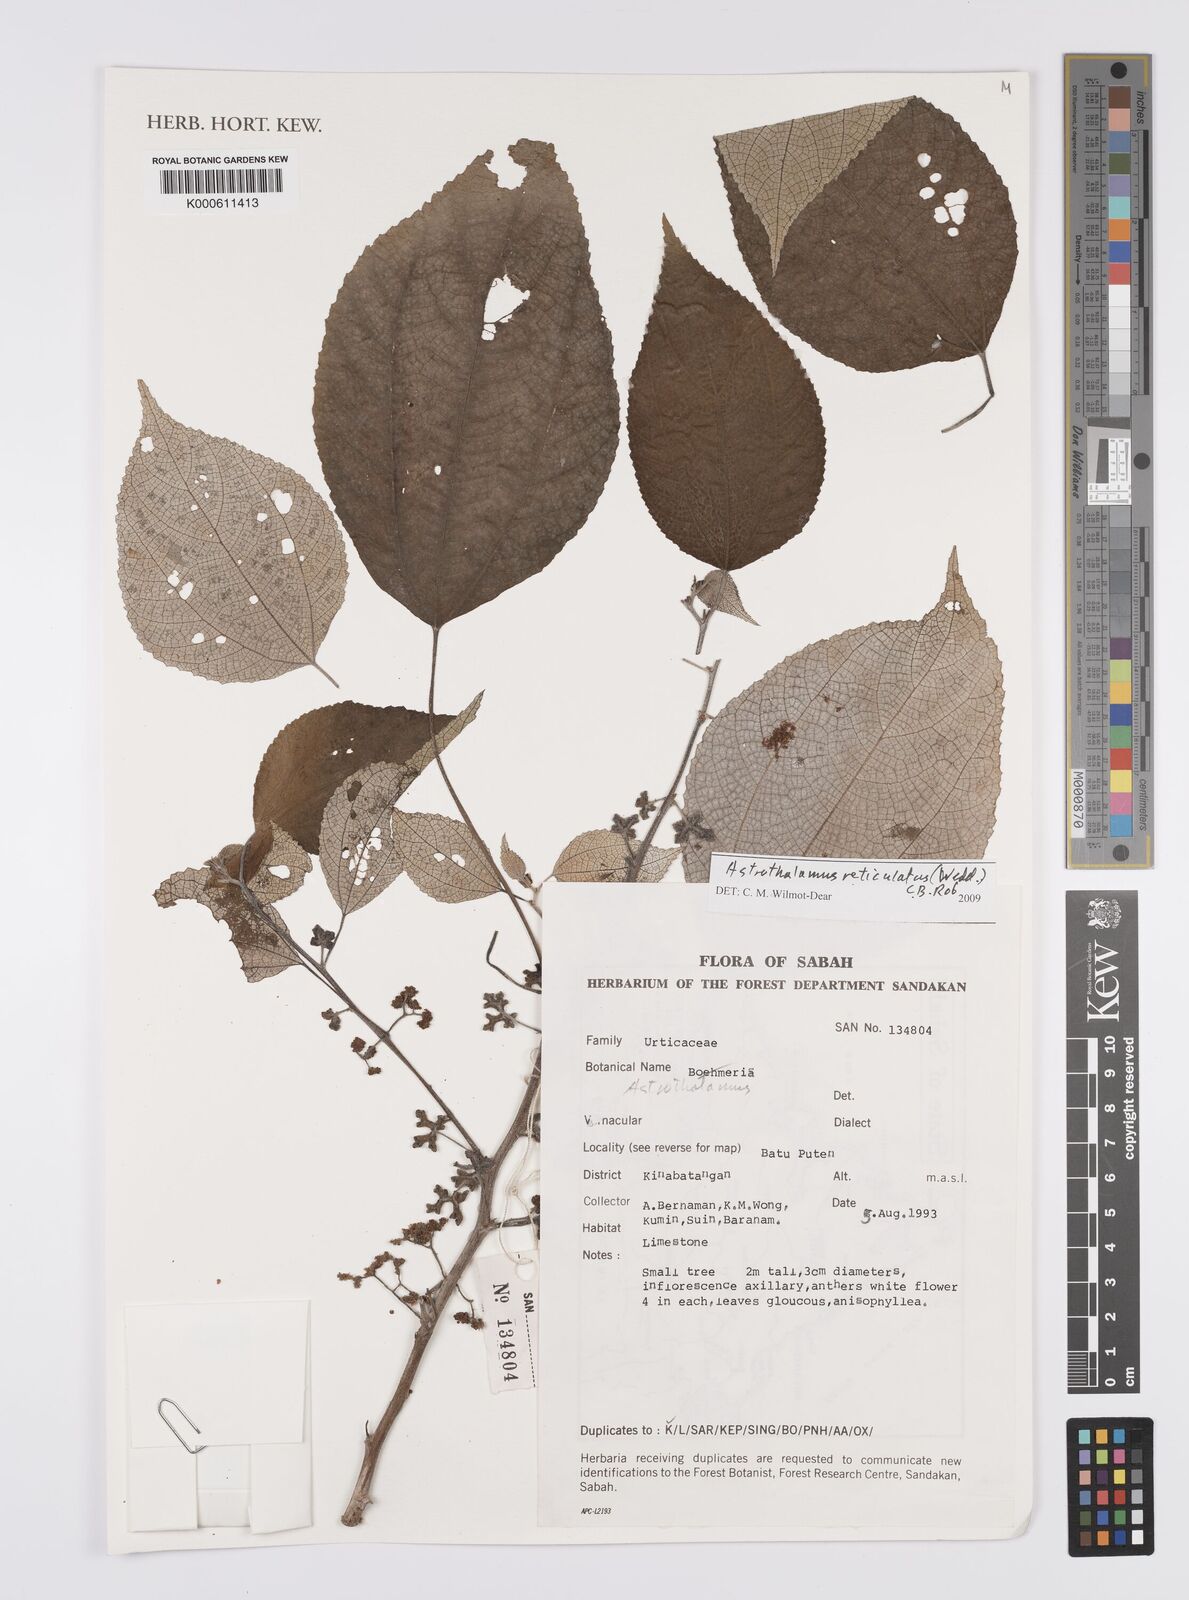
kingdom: Plantae
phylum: Tracheophyta
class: Magnoliopsida
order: Rosales
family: Urticaceae
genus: Astrothalamus
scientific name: Astrothalamus reticulatus
